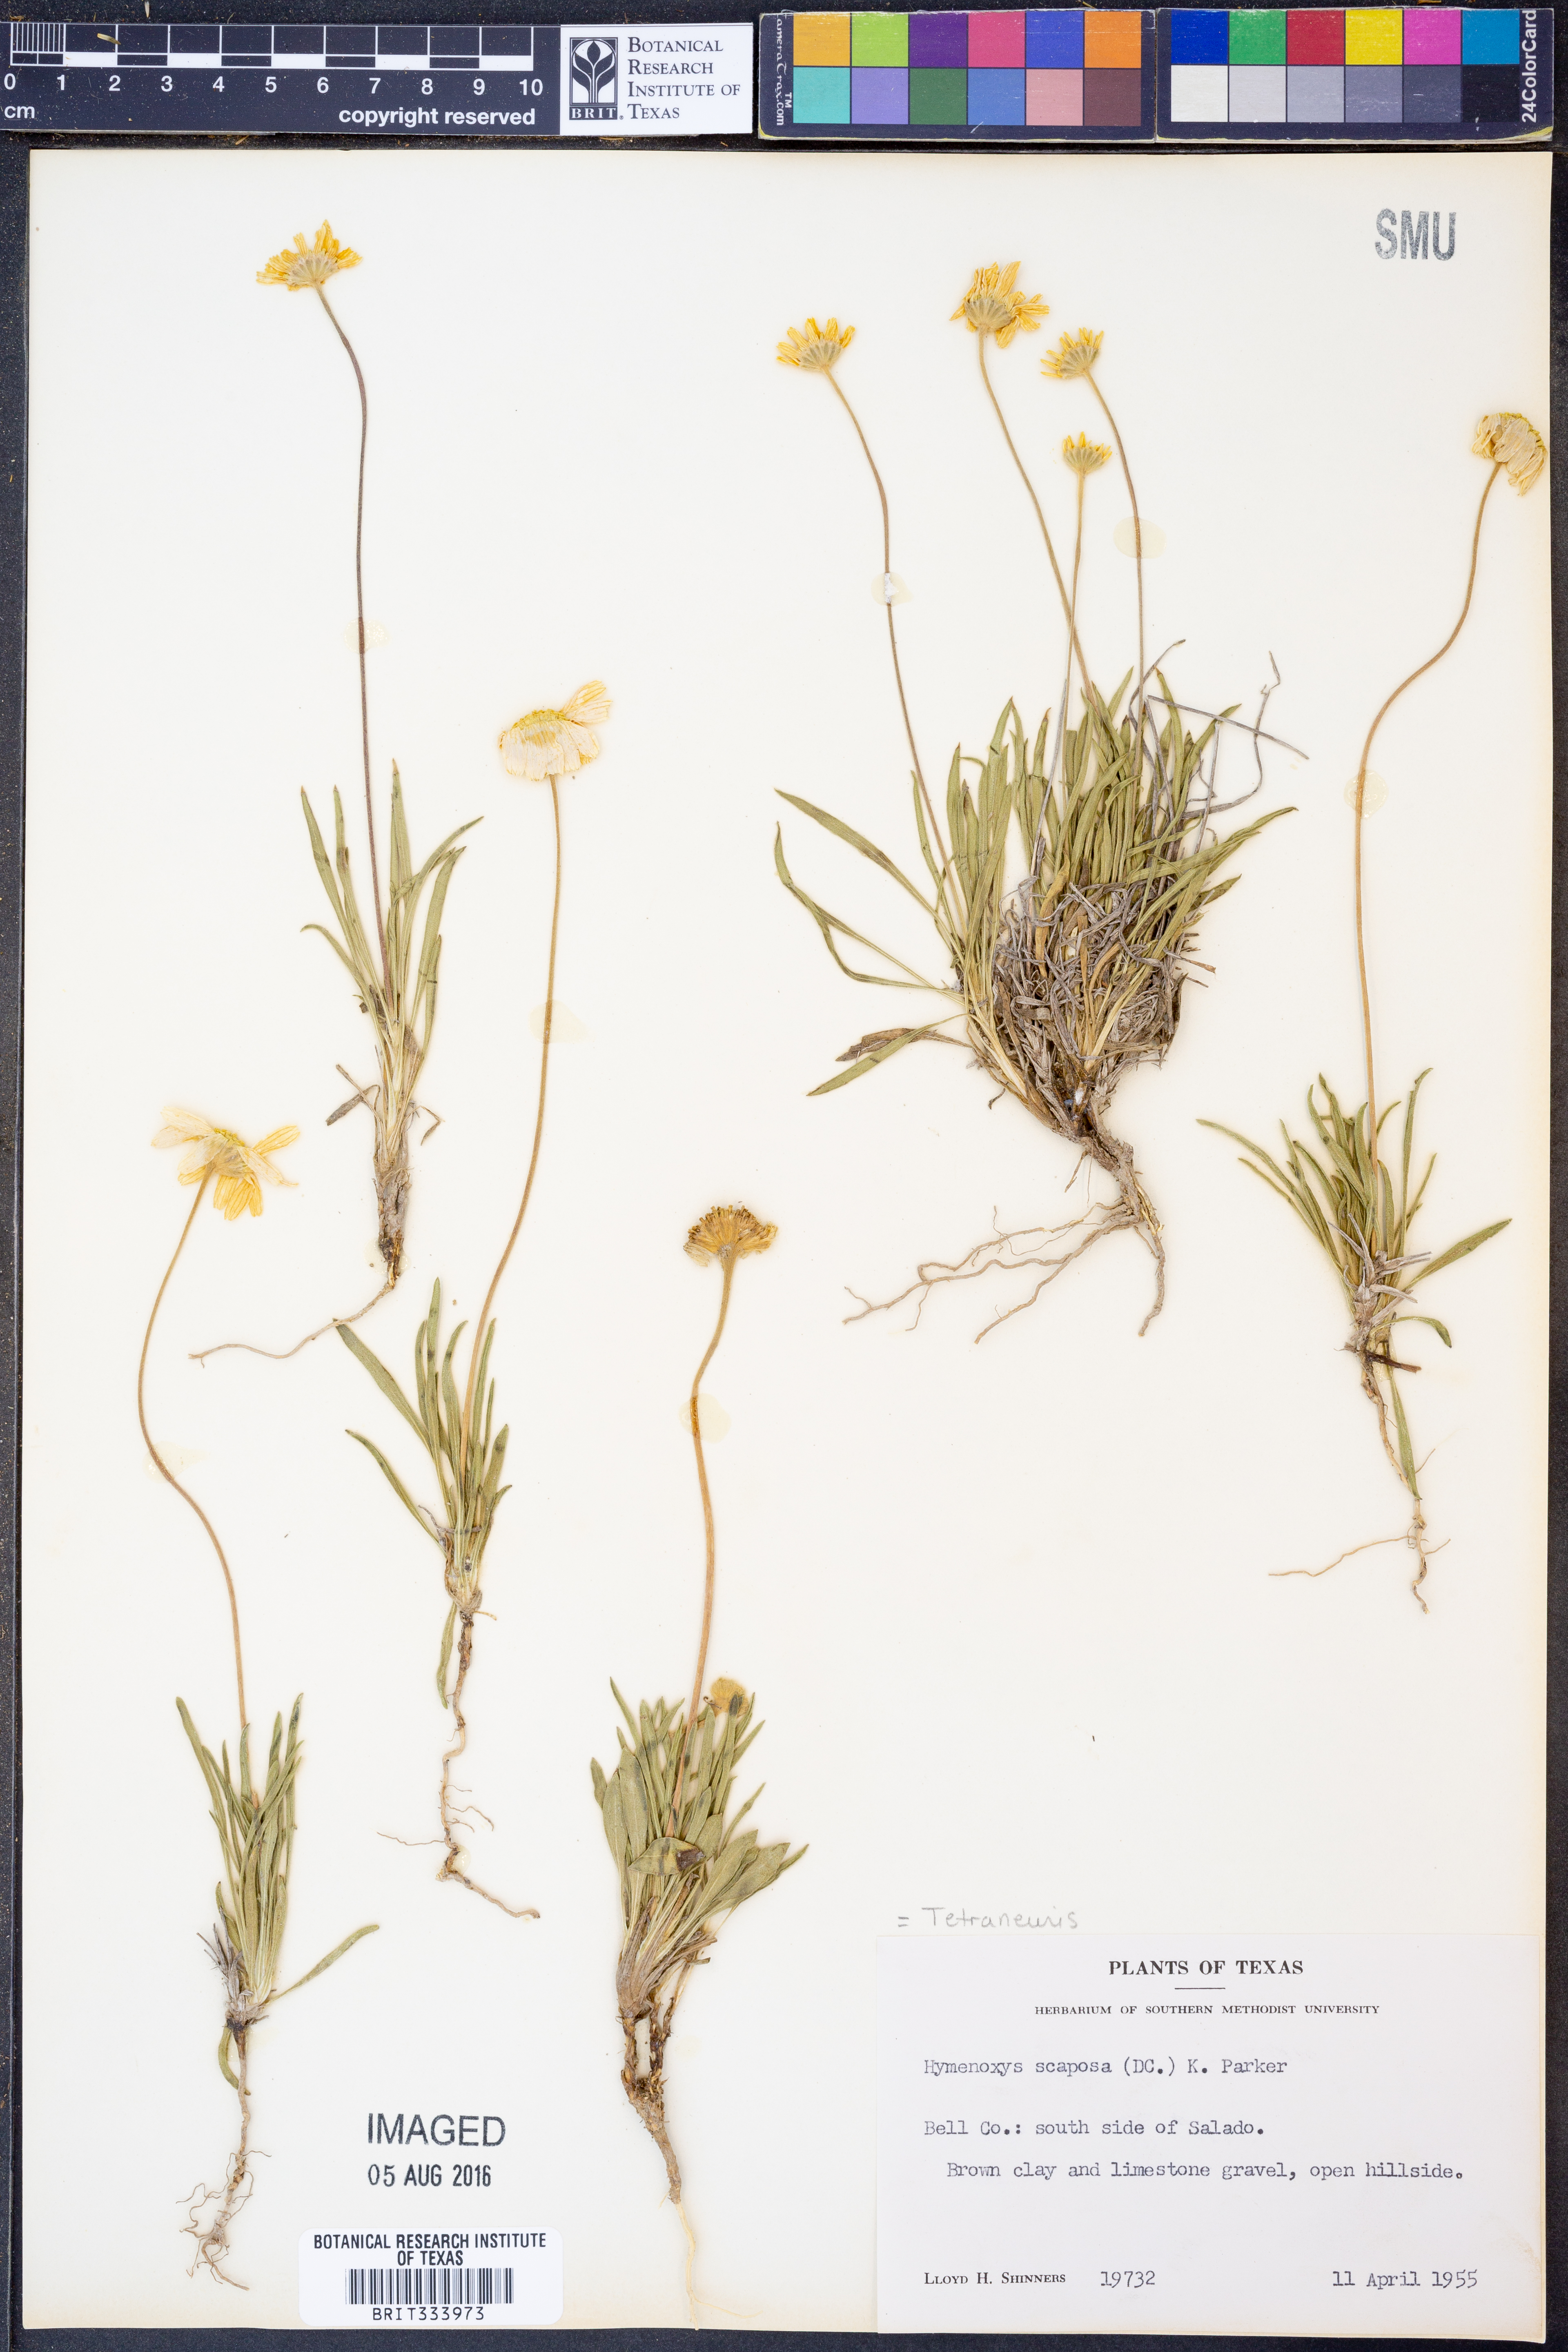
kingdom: Plantae
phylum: Tracheophyta
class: Magnoliopsida
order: Asterales
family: Asteraceae
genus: Tetraneuris
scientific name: Tetraneuris scaposa
